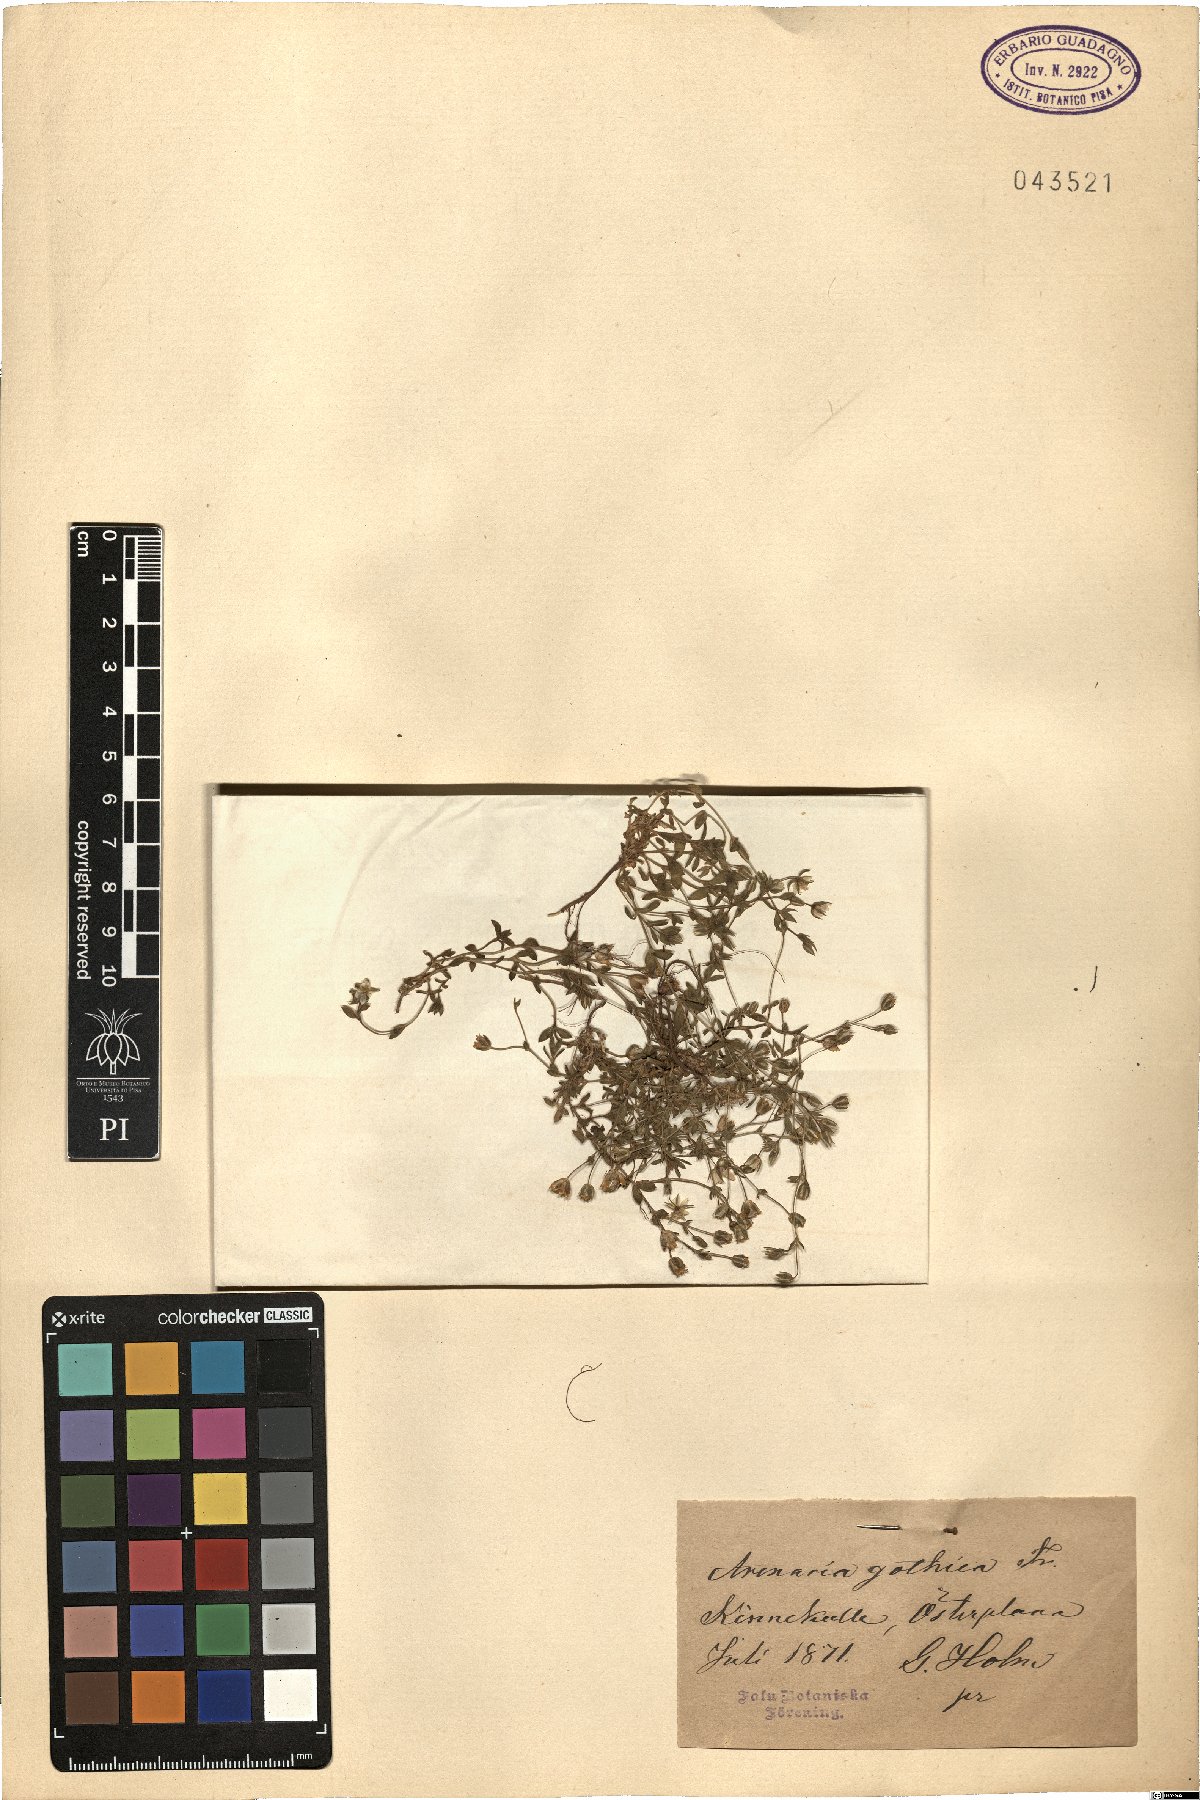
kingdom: Plantae
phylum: Tracheophyta
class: Magnoliopsida
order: Caryophyllales
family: Caryophyllaceae
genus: Arenaria
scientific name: Arenaria gothica
